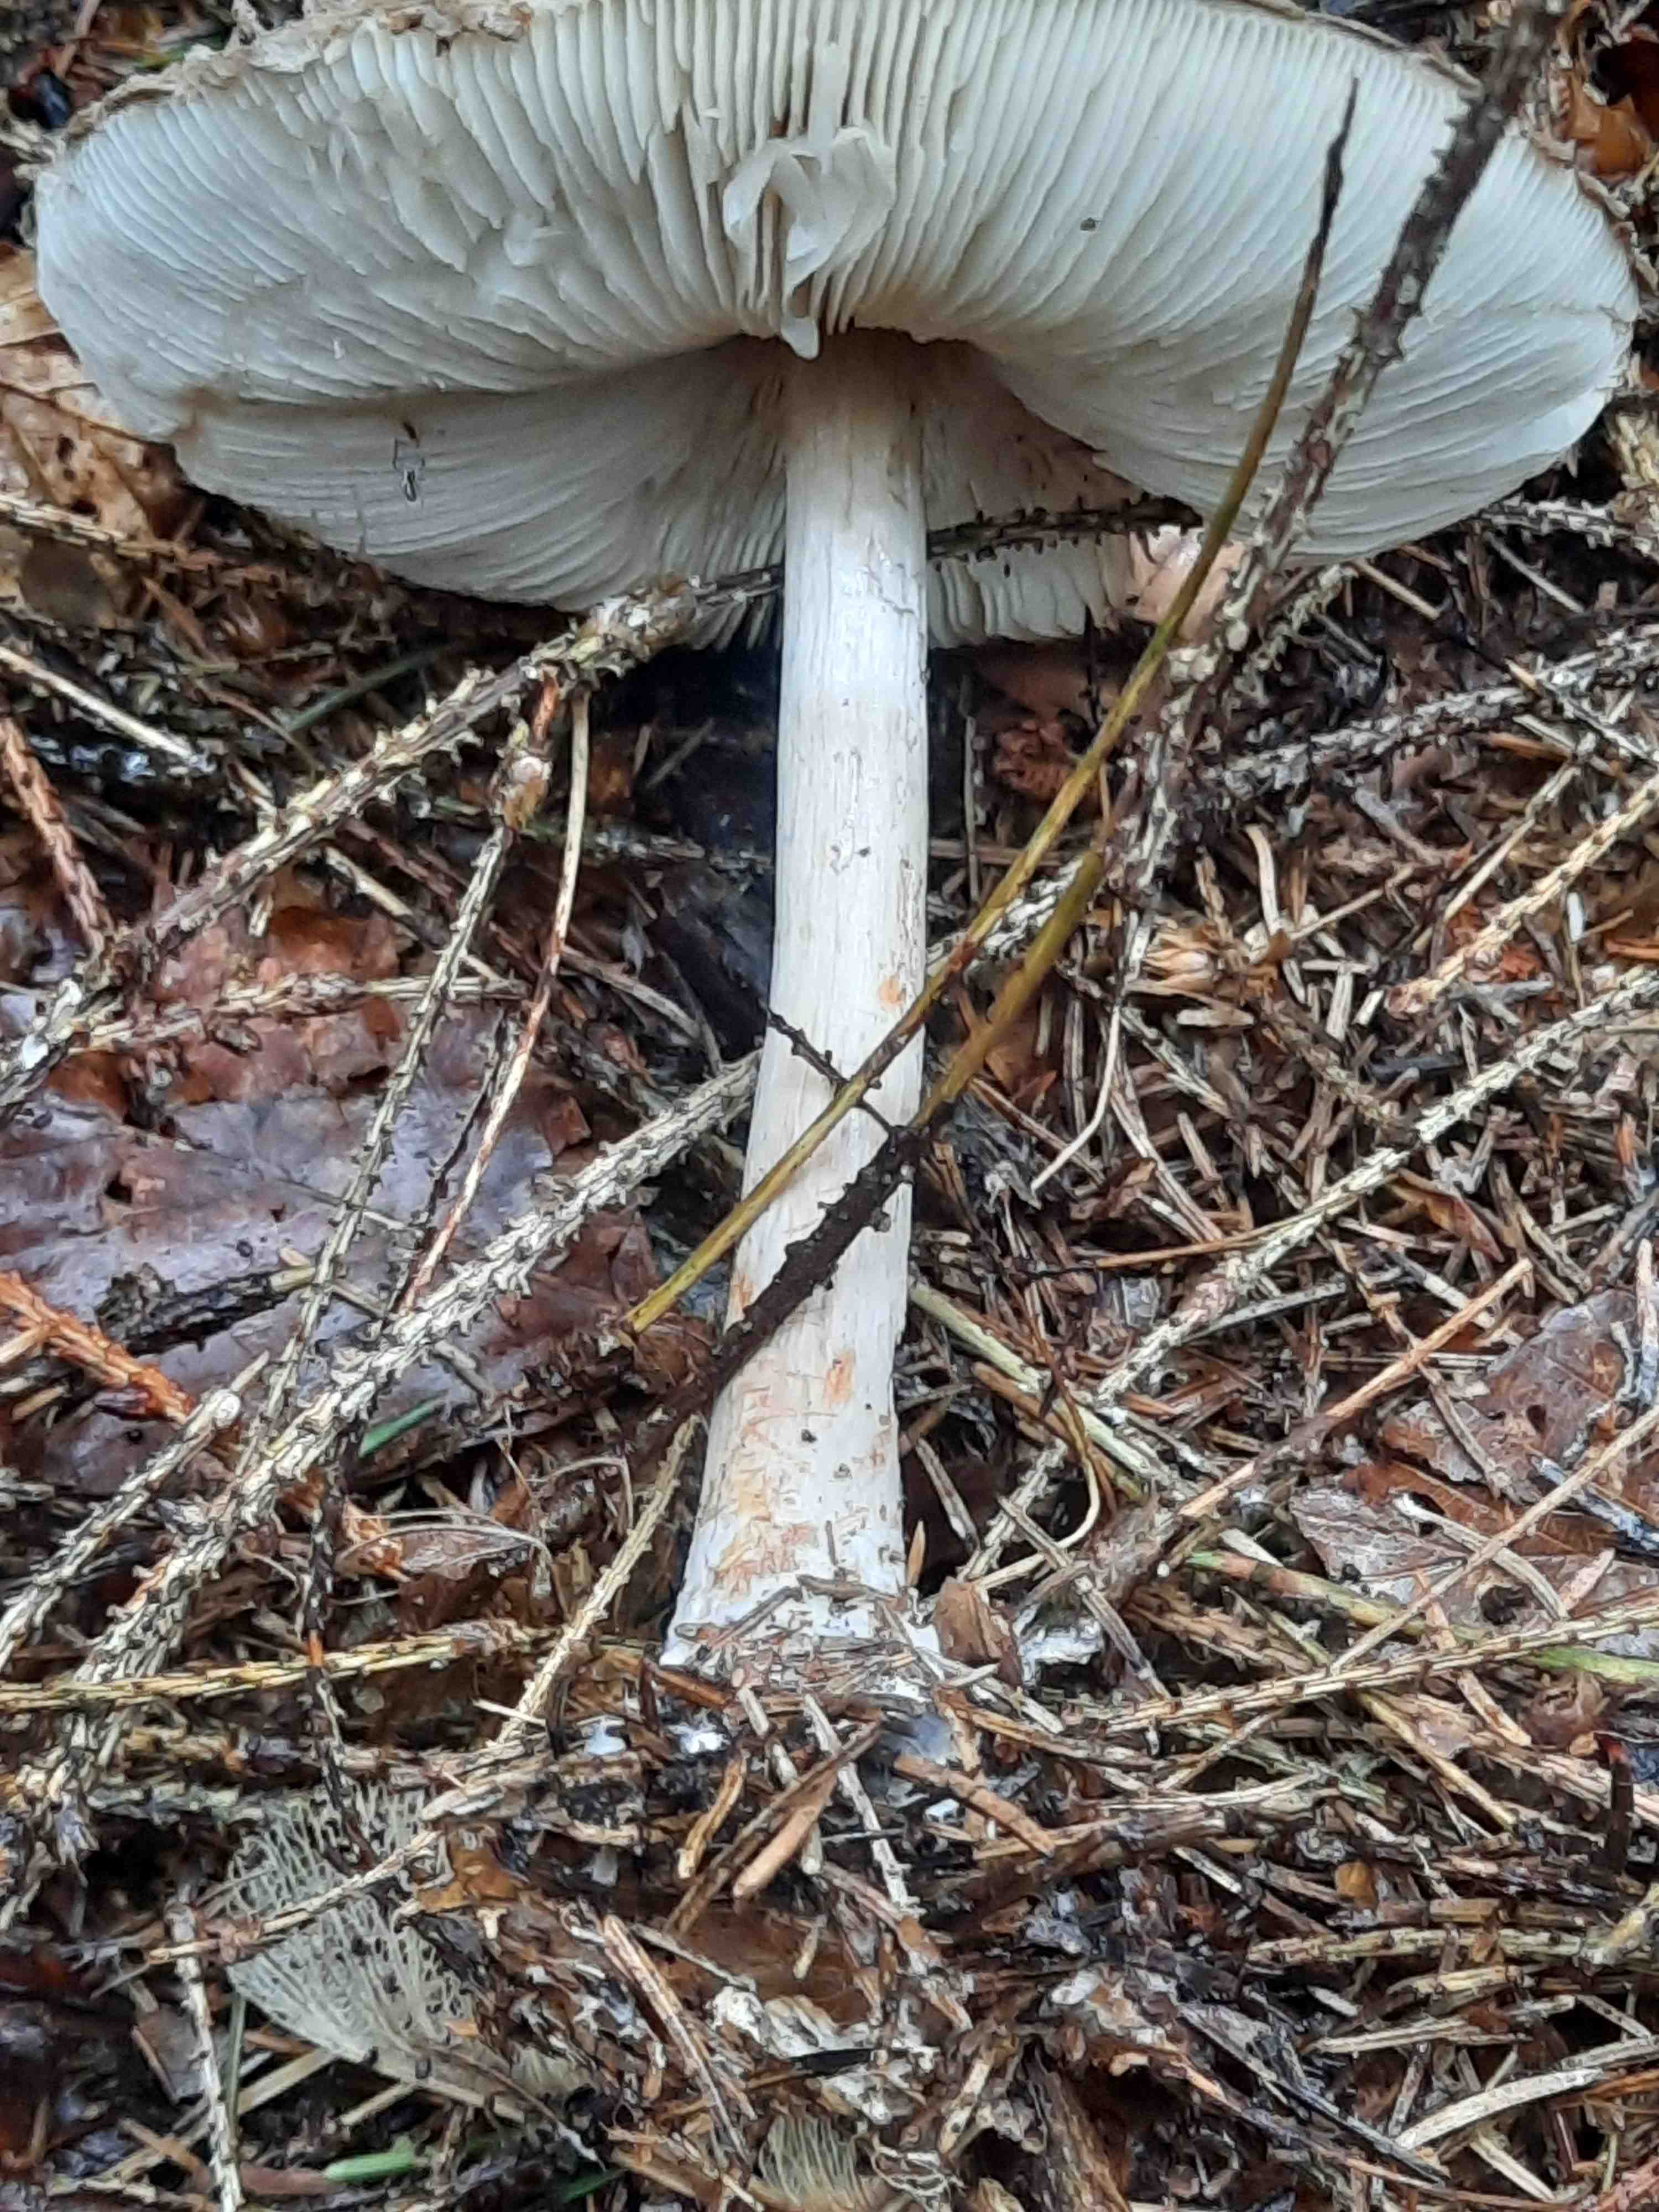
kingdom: Fungi
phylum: Basidiomycota
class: Agaricomycetes
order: Agaricales
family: Agaricaceae
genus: Chlorophyllum
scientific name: Chlorophyllum olivieri
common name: almindelig rabarberhat
